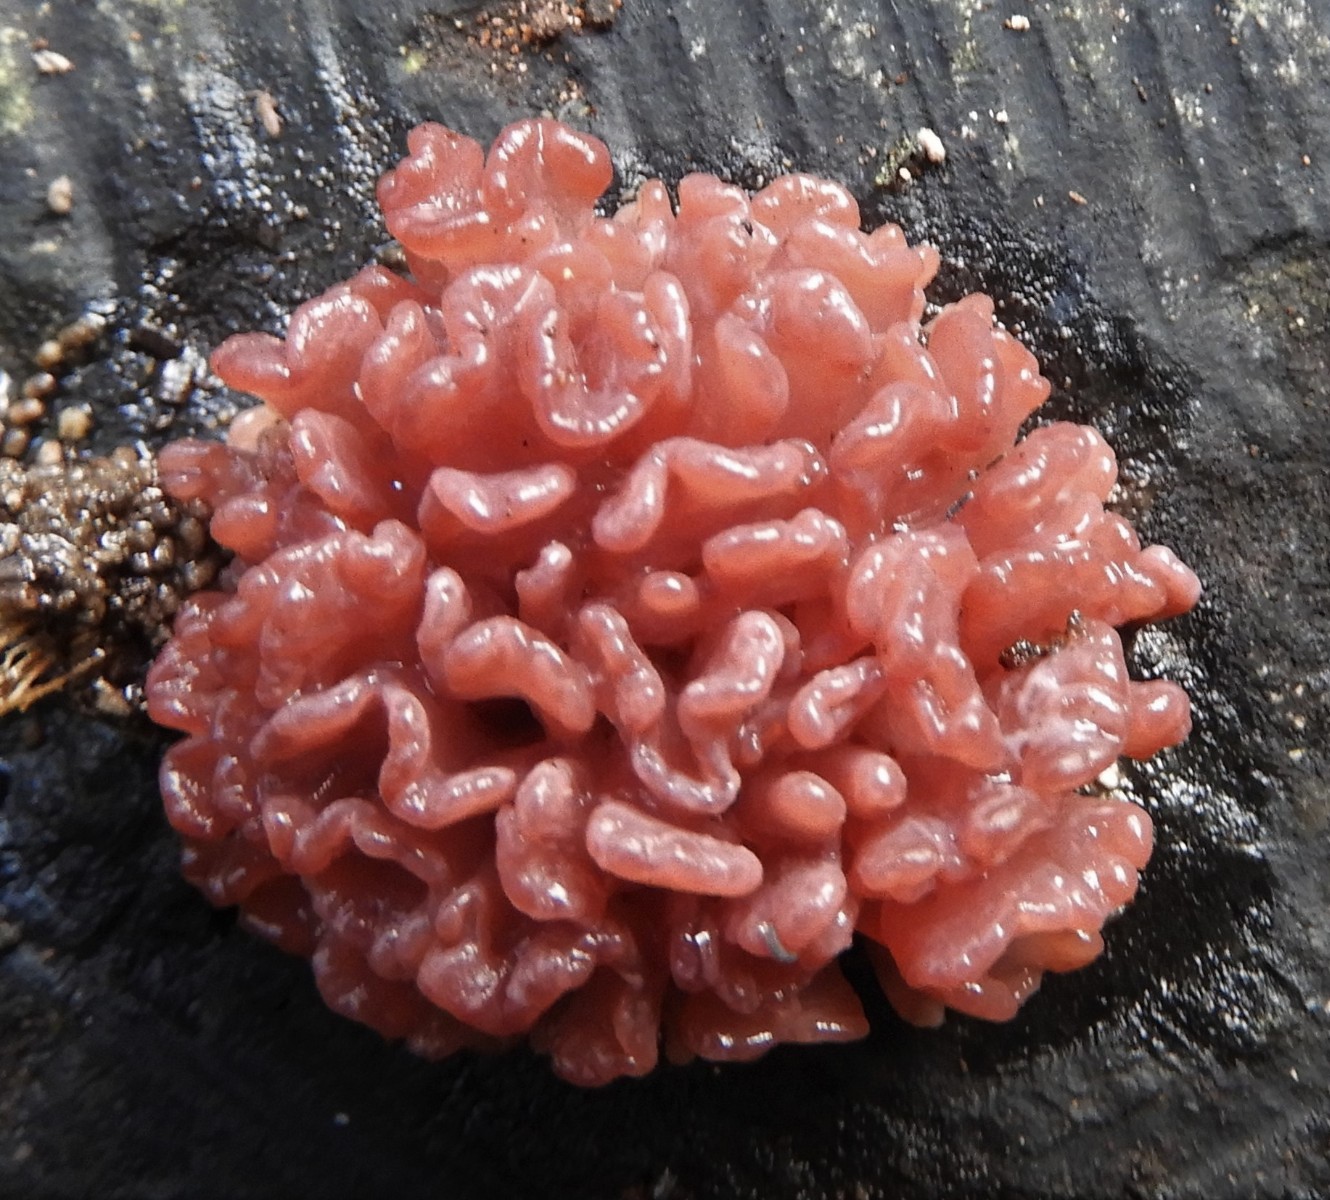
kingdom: Fungi
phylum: Ascomycota
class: Leotiomycetes
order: Helotiales
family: Gelatinodiscaceae
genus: Ascocoryne
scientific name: Ascocoryne sarcoides
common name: rødlilla sejskive
